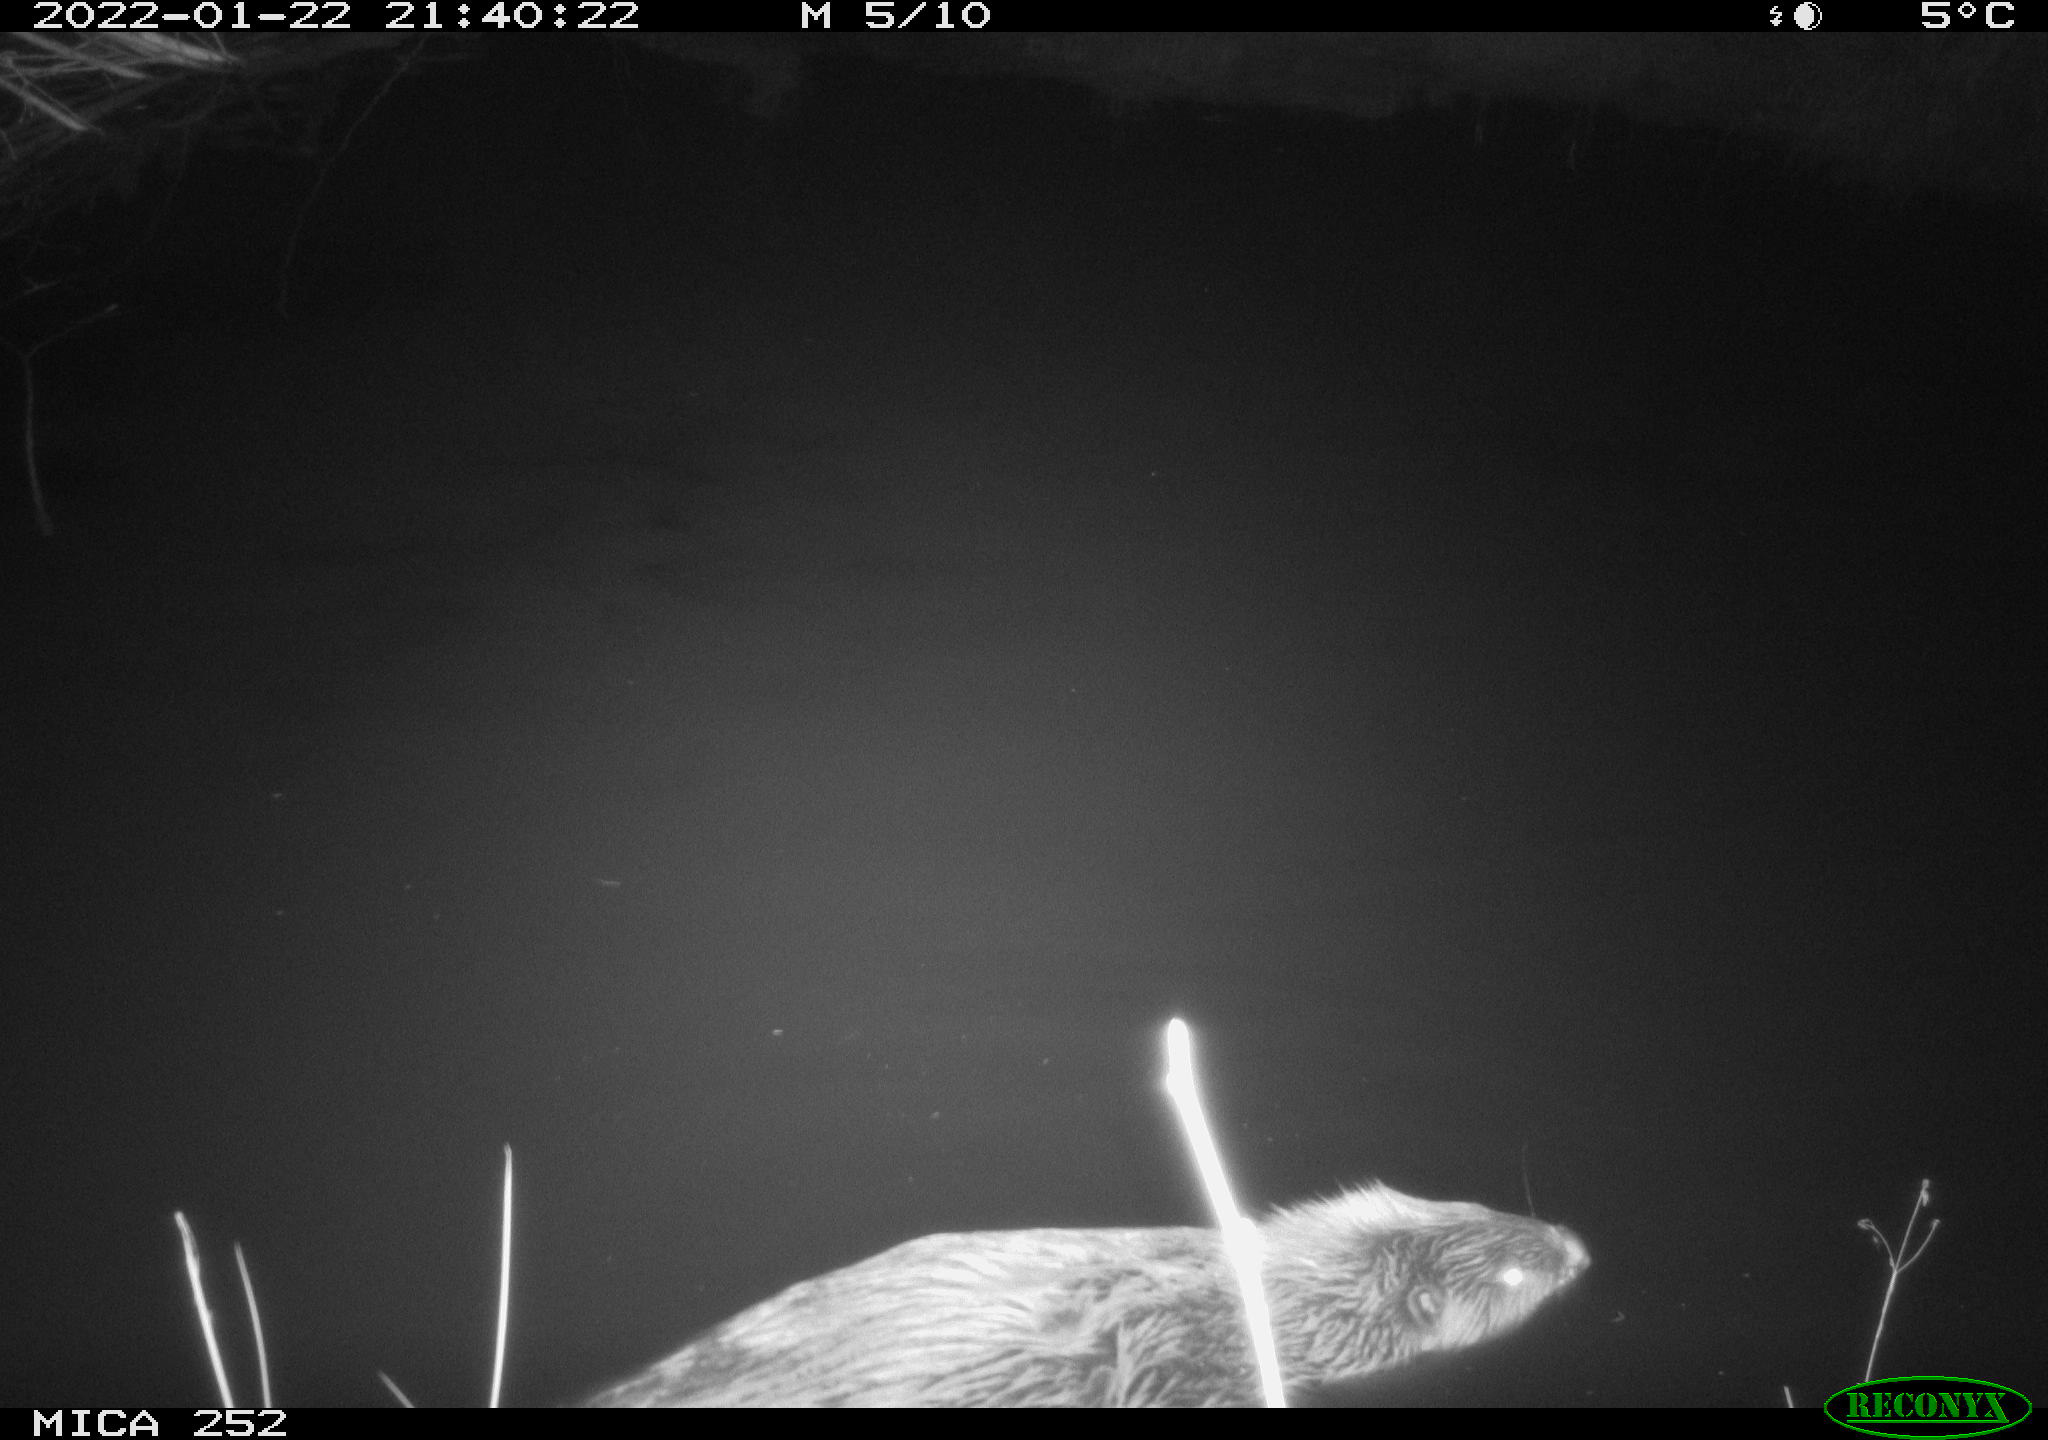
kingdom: Animalia
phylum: Chordata
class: Mammalia
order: Rodentia
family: Castoridae
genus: Castor
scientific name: Castor fiber
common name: Eurasian beaver
